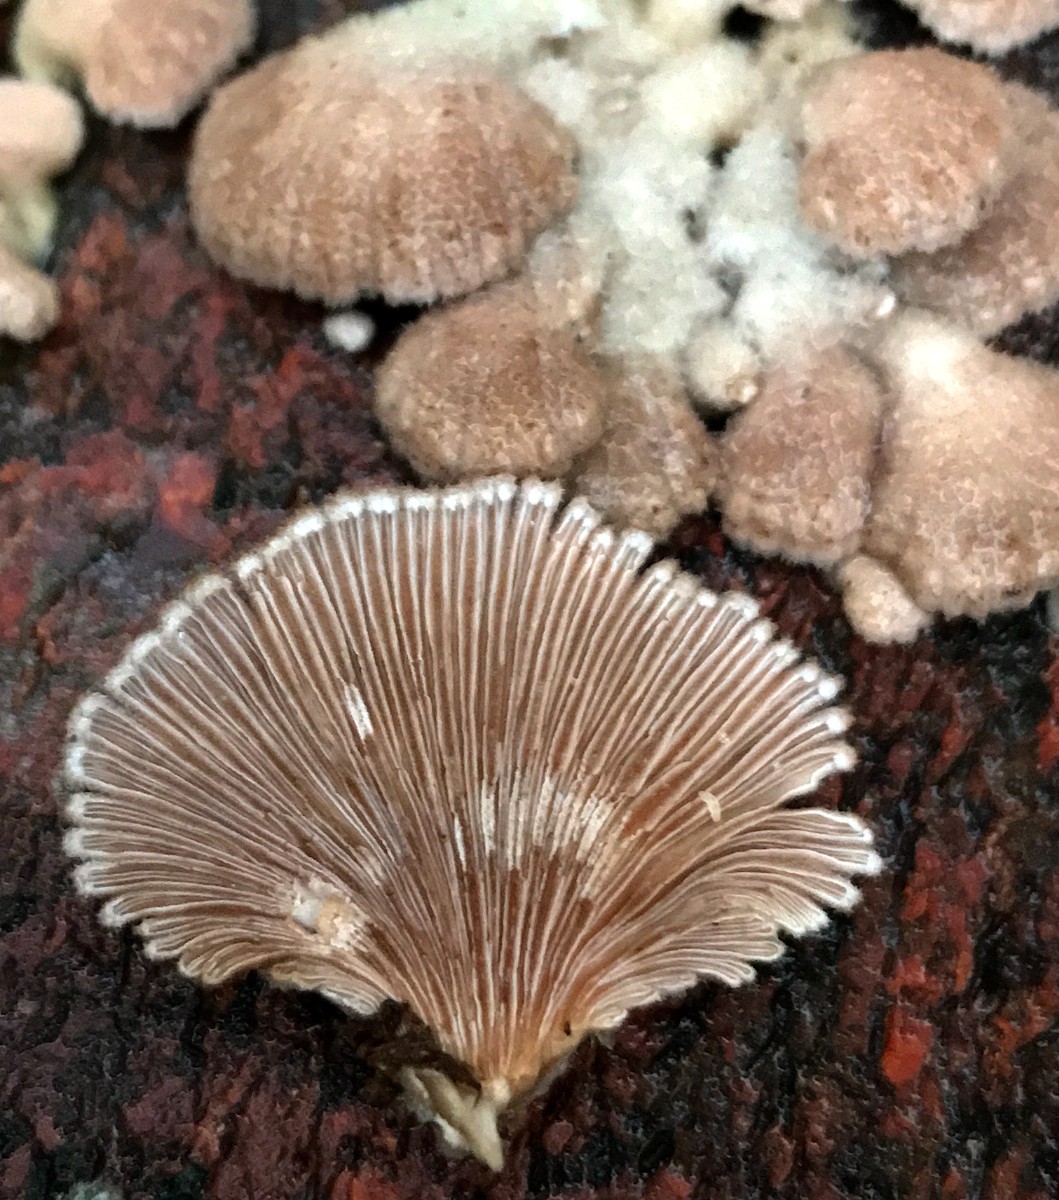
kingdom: Fungi
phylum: Basidiomycota
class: Agaricomycetes
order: Agaricales
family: Schizophyllaceae
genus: Schizophyllum
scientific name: Schizophyllum commune
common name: kløvblad
